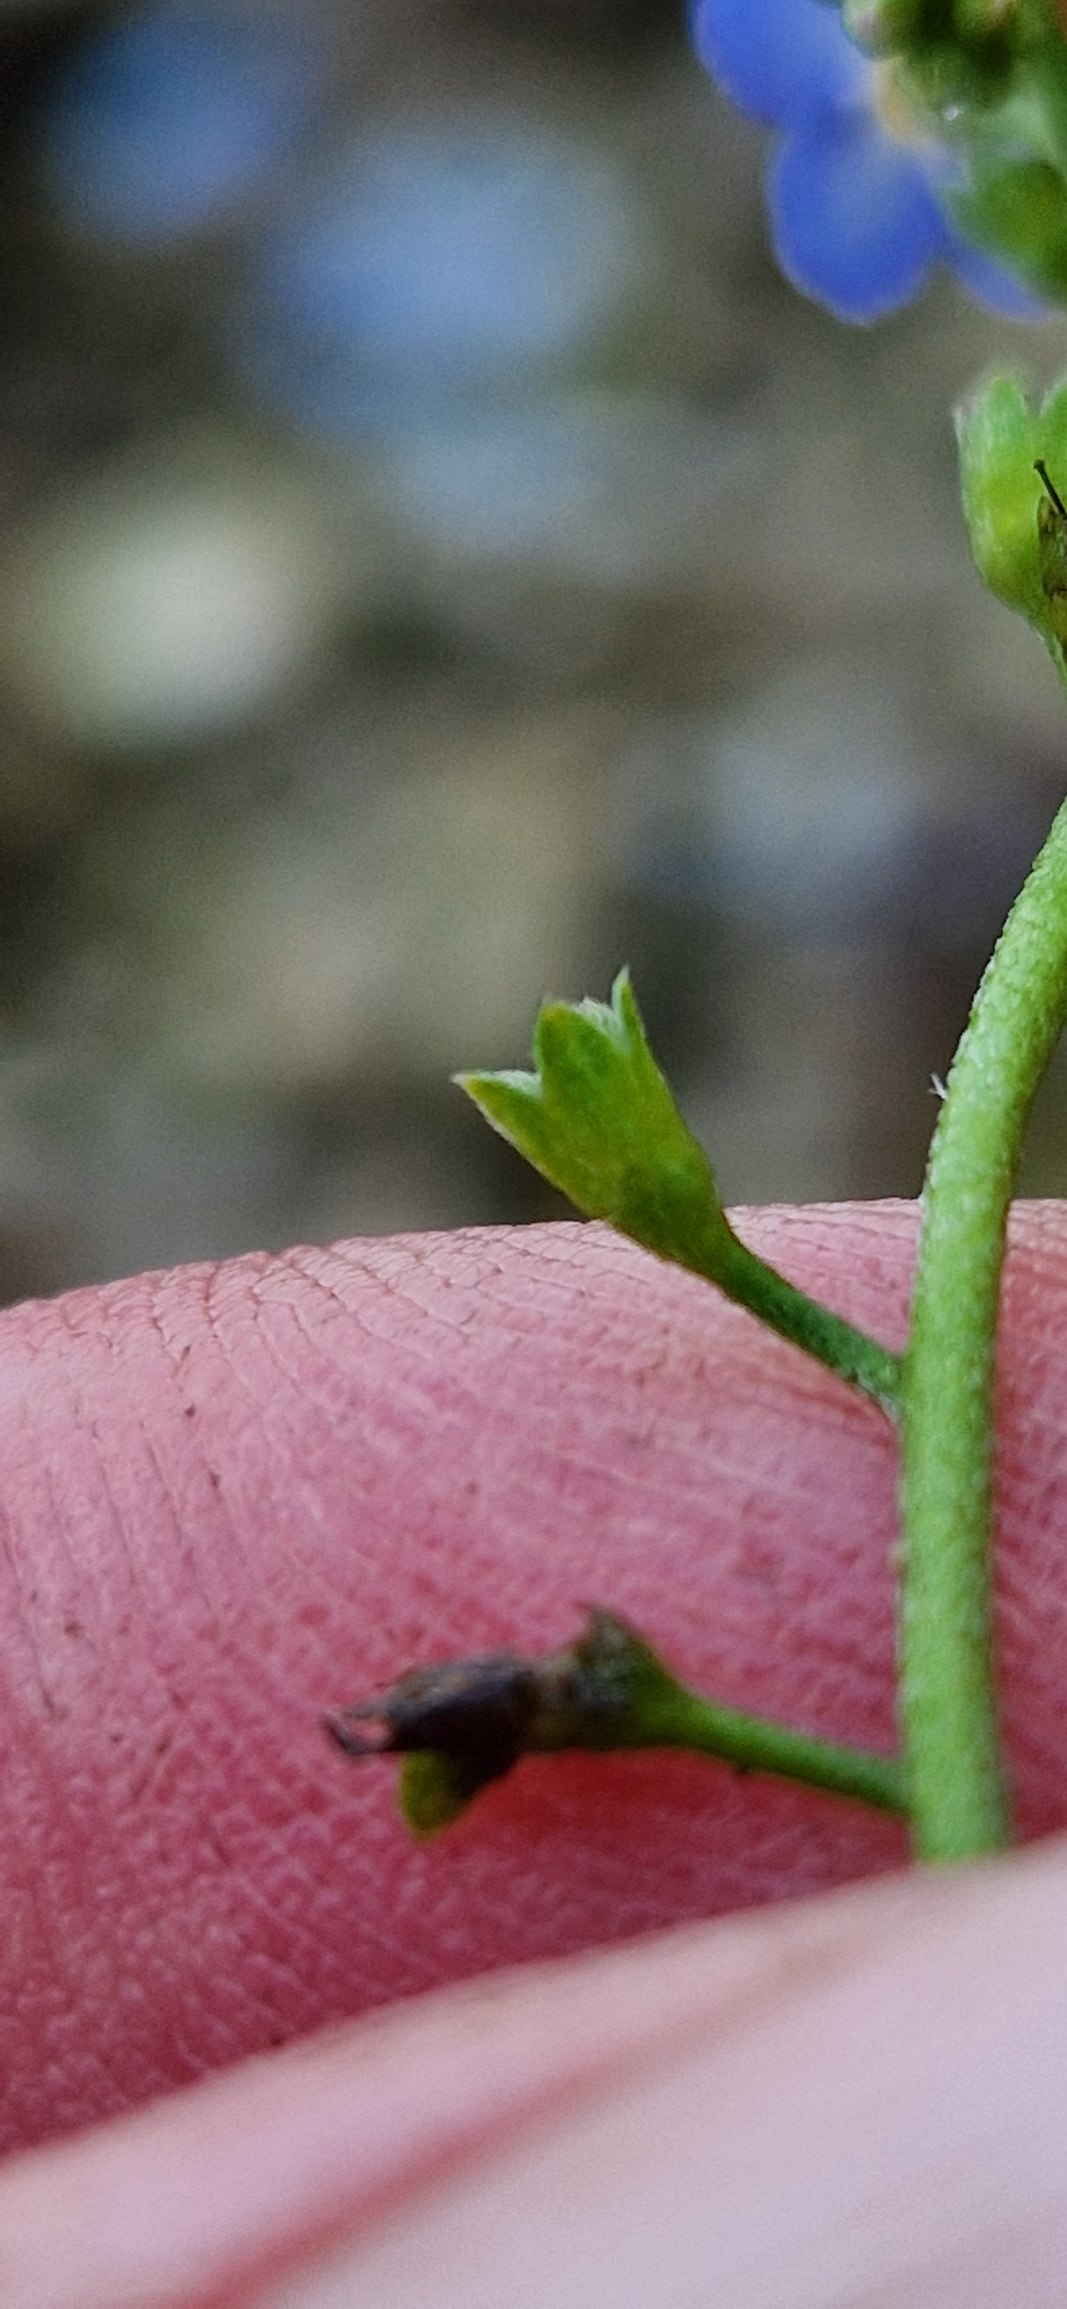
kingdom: Plantae
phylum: Tracheophyta
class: Magnoliopsida
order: Boraginales
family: Boraginaceae
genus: Myosotis
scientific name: Myosotis scorpioides
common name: Eng-forglemmigej
